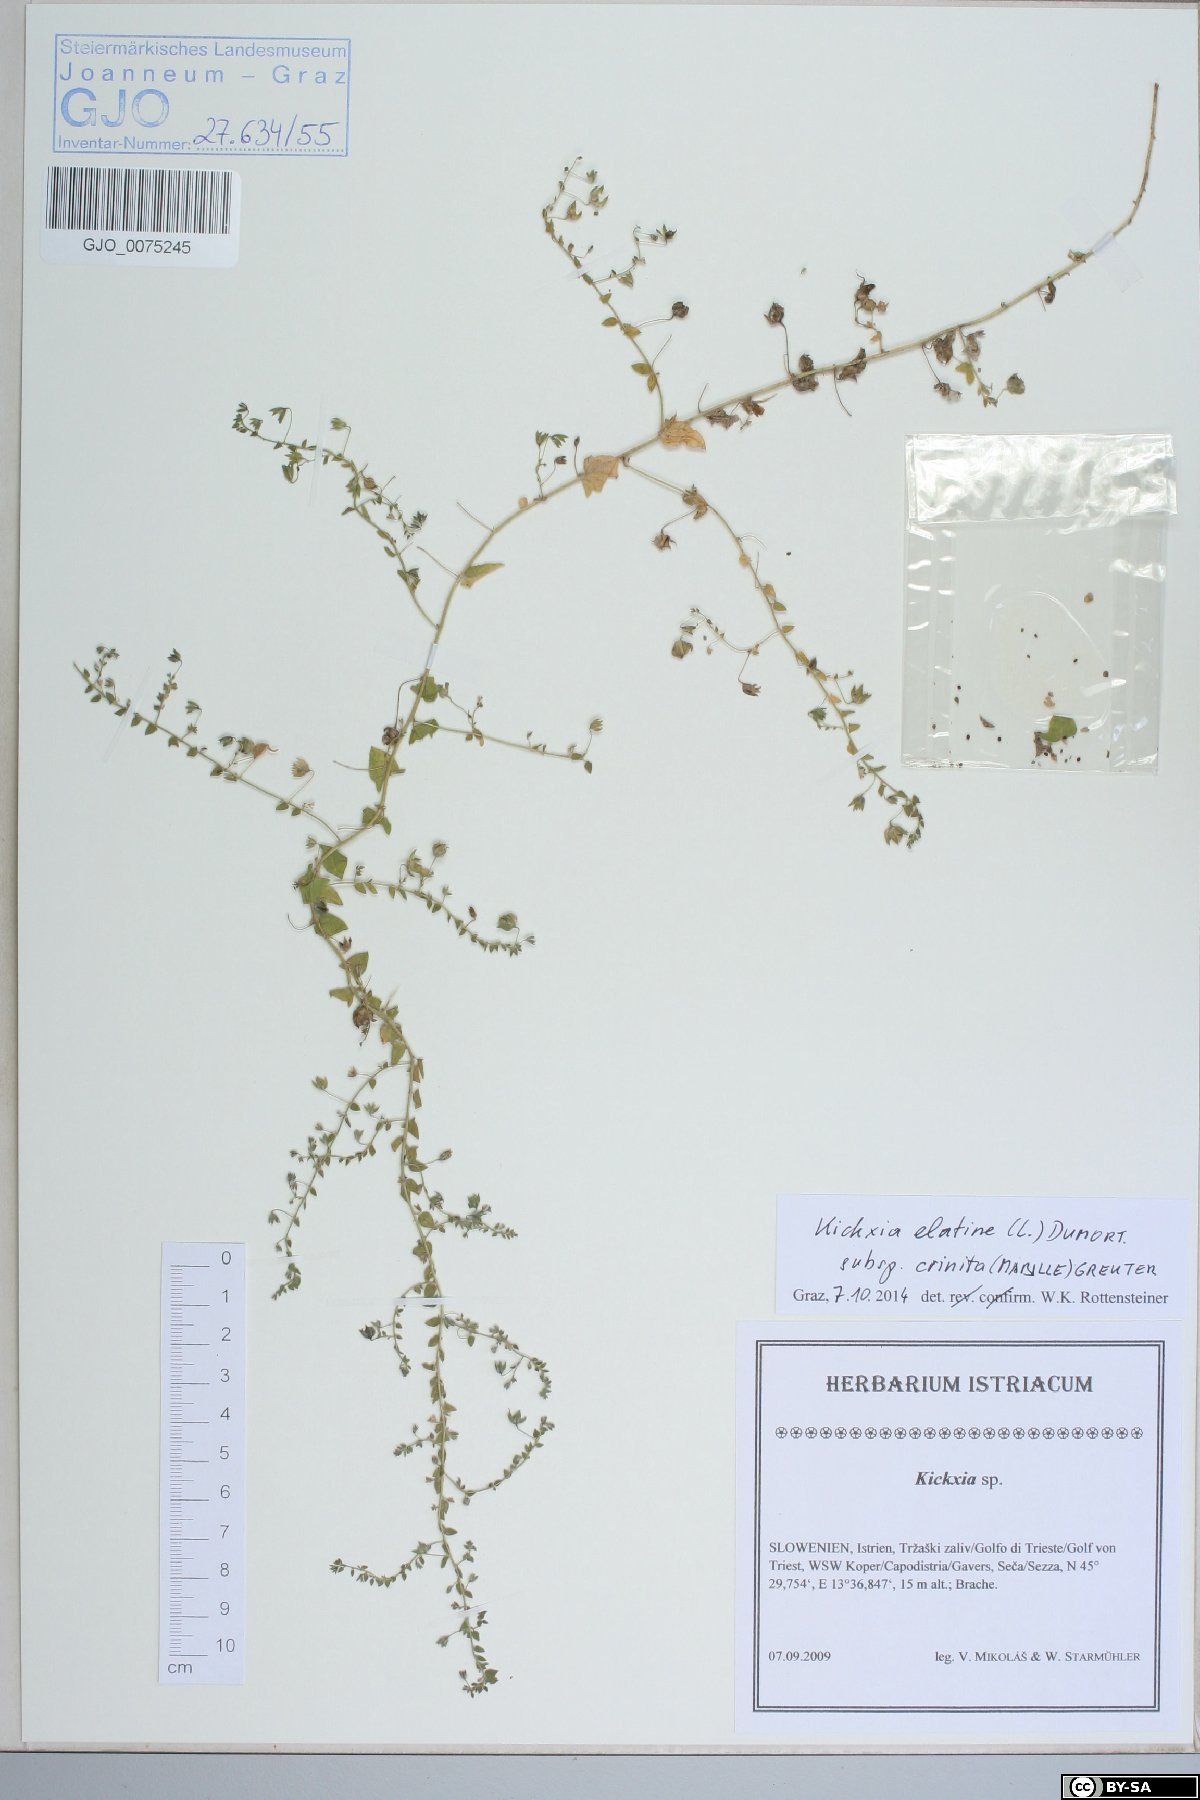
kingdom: Plantae
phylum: Tracheophyta
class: Magnoliopsida
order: Lamiales
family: Plantaginaceae
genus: Kickxia
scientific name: Kickxia elatine
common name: Sharp-leaved fluellen
